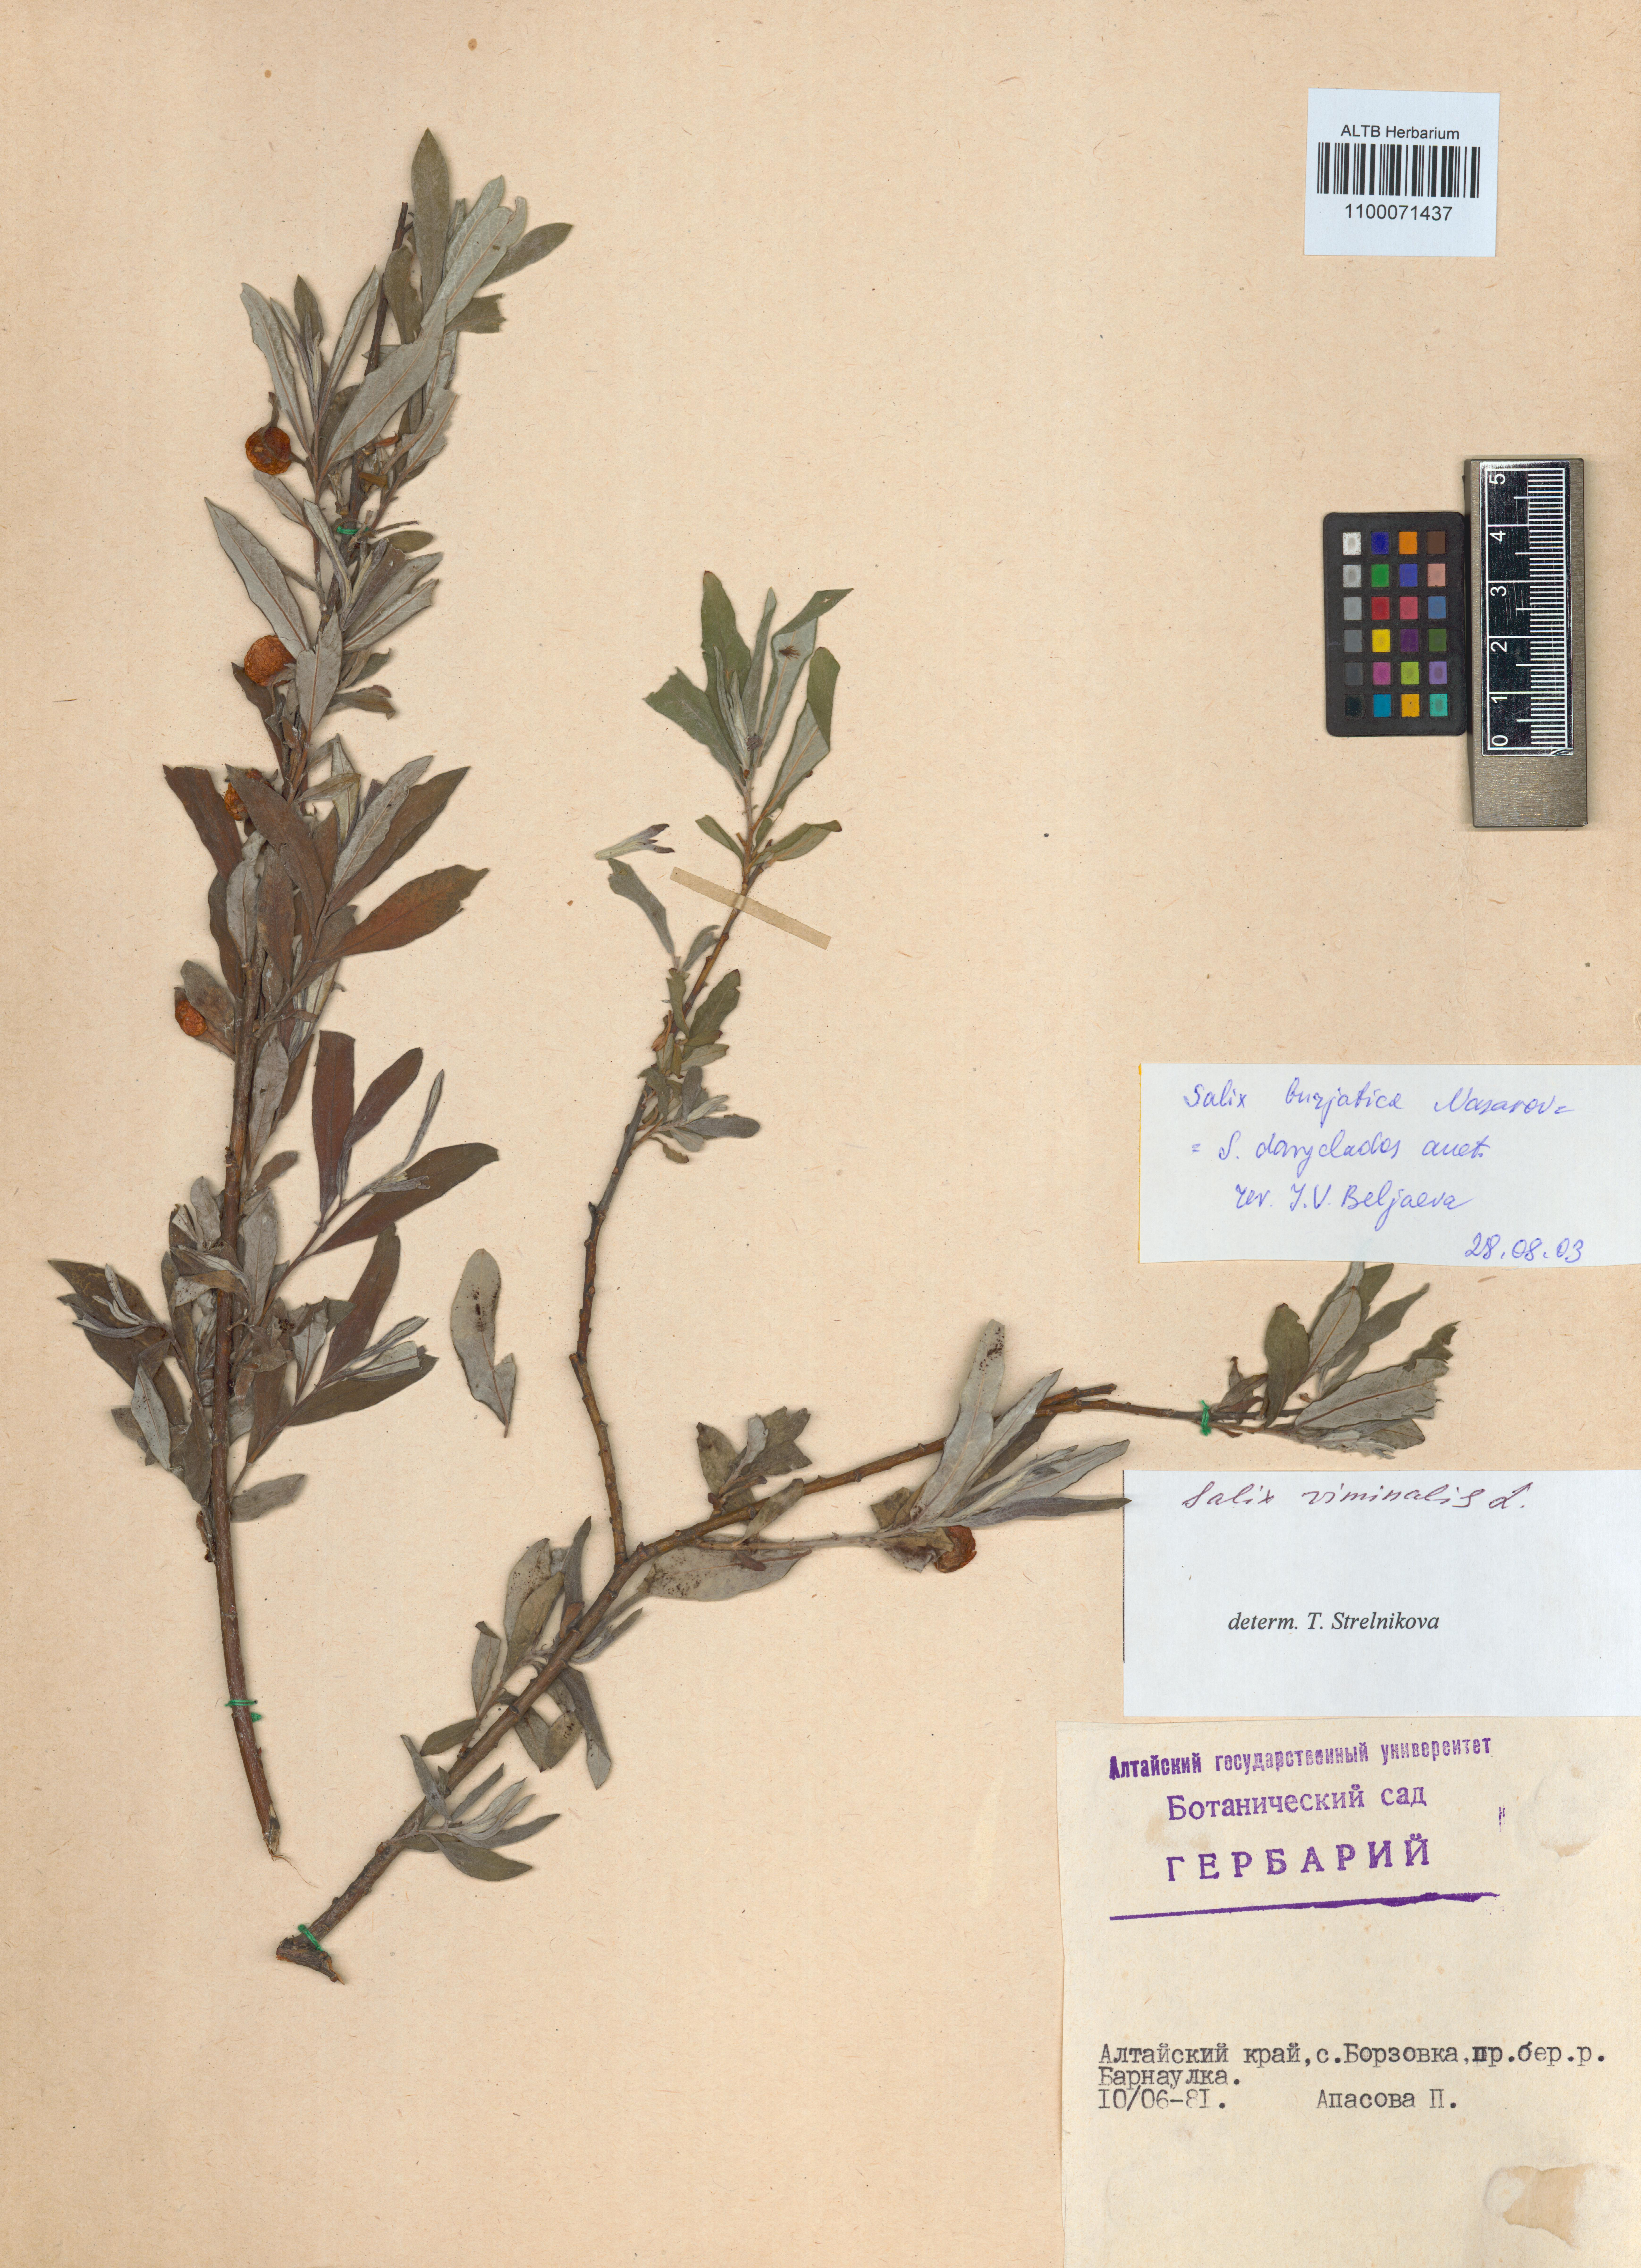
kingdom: Plantae
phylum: Tracheophyta
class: Magnoliopsida
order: Malpighiales
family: Salicaceae
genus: Salix
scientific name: Salix gmelinii
